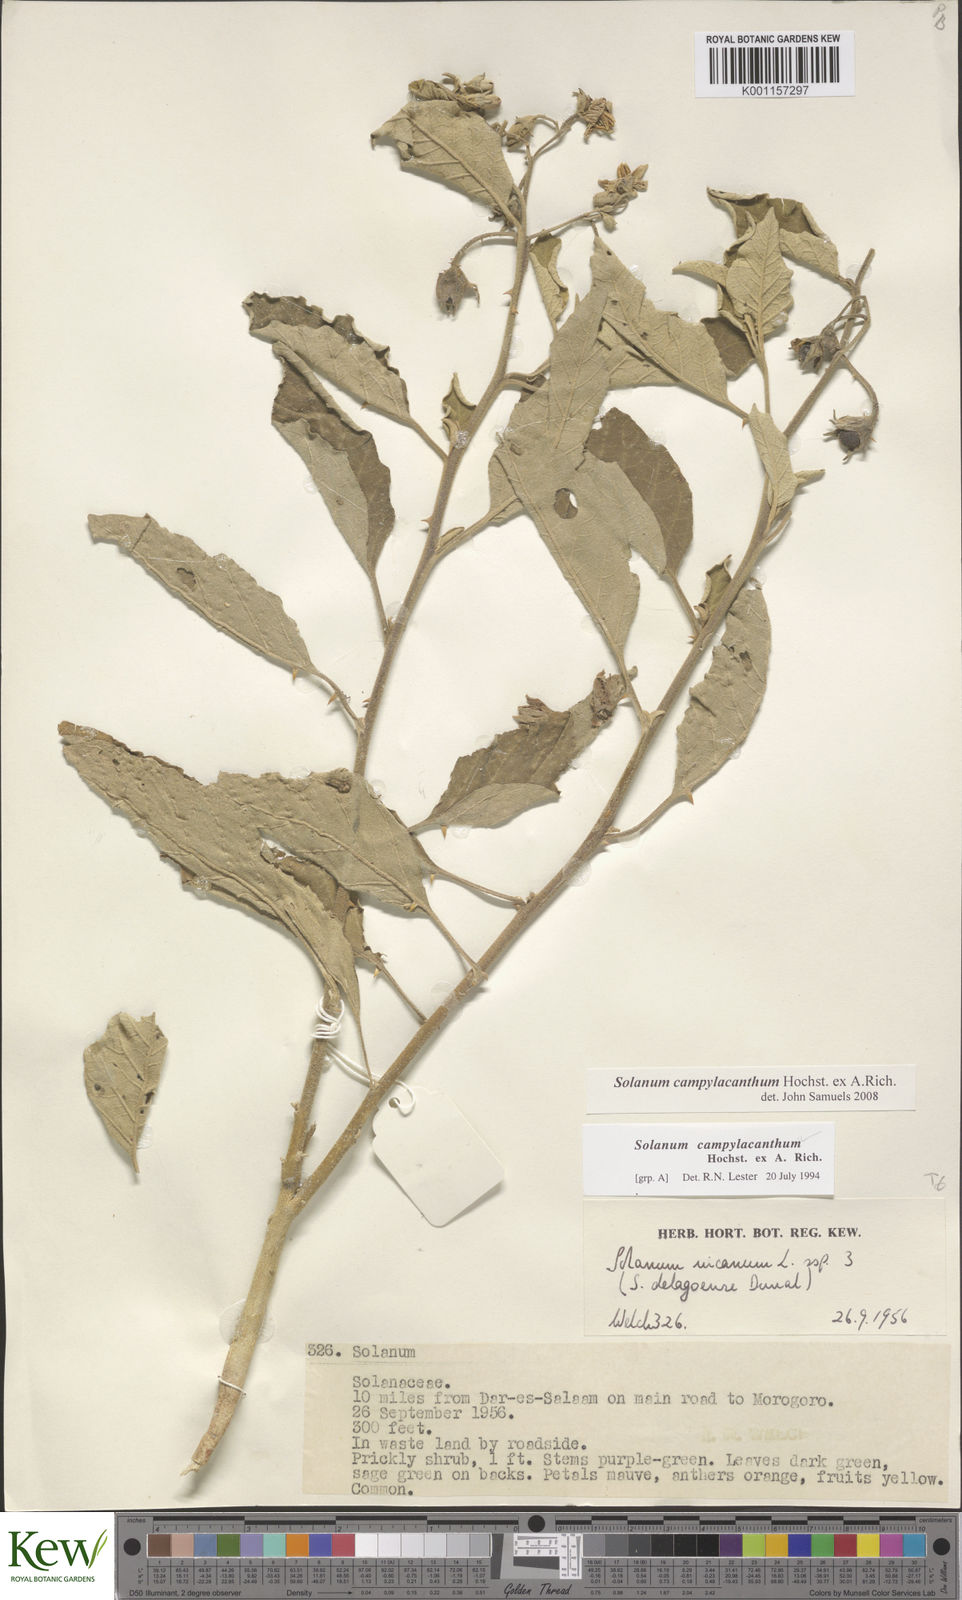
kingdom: Plantae
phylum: Tracheophyta
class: Magnoliopsida
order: Solanales
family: Solanaceae
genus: Solanum
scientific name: Solanum campylacanthum
